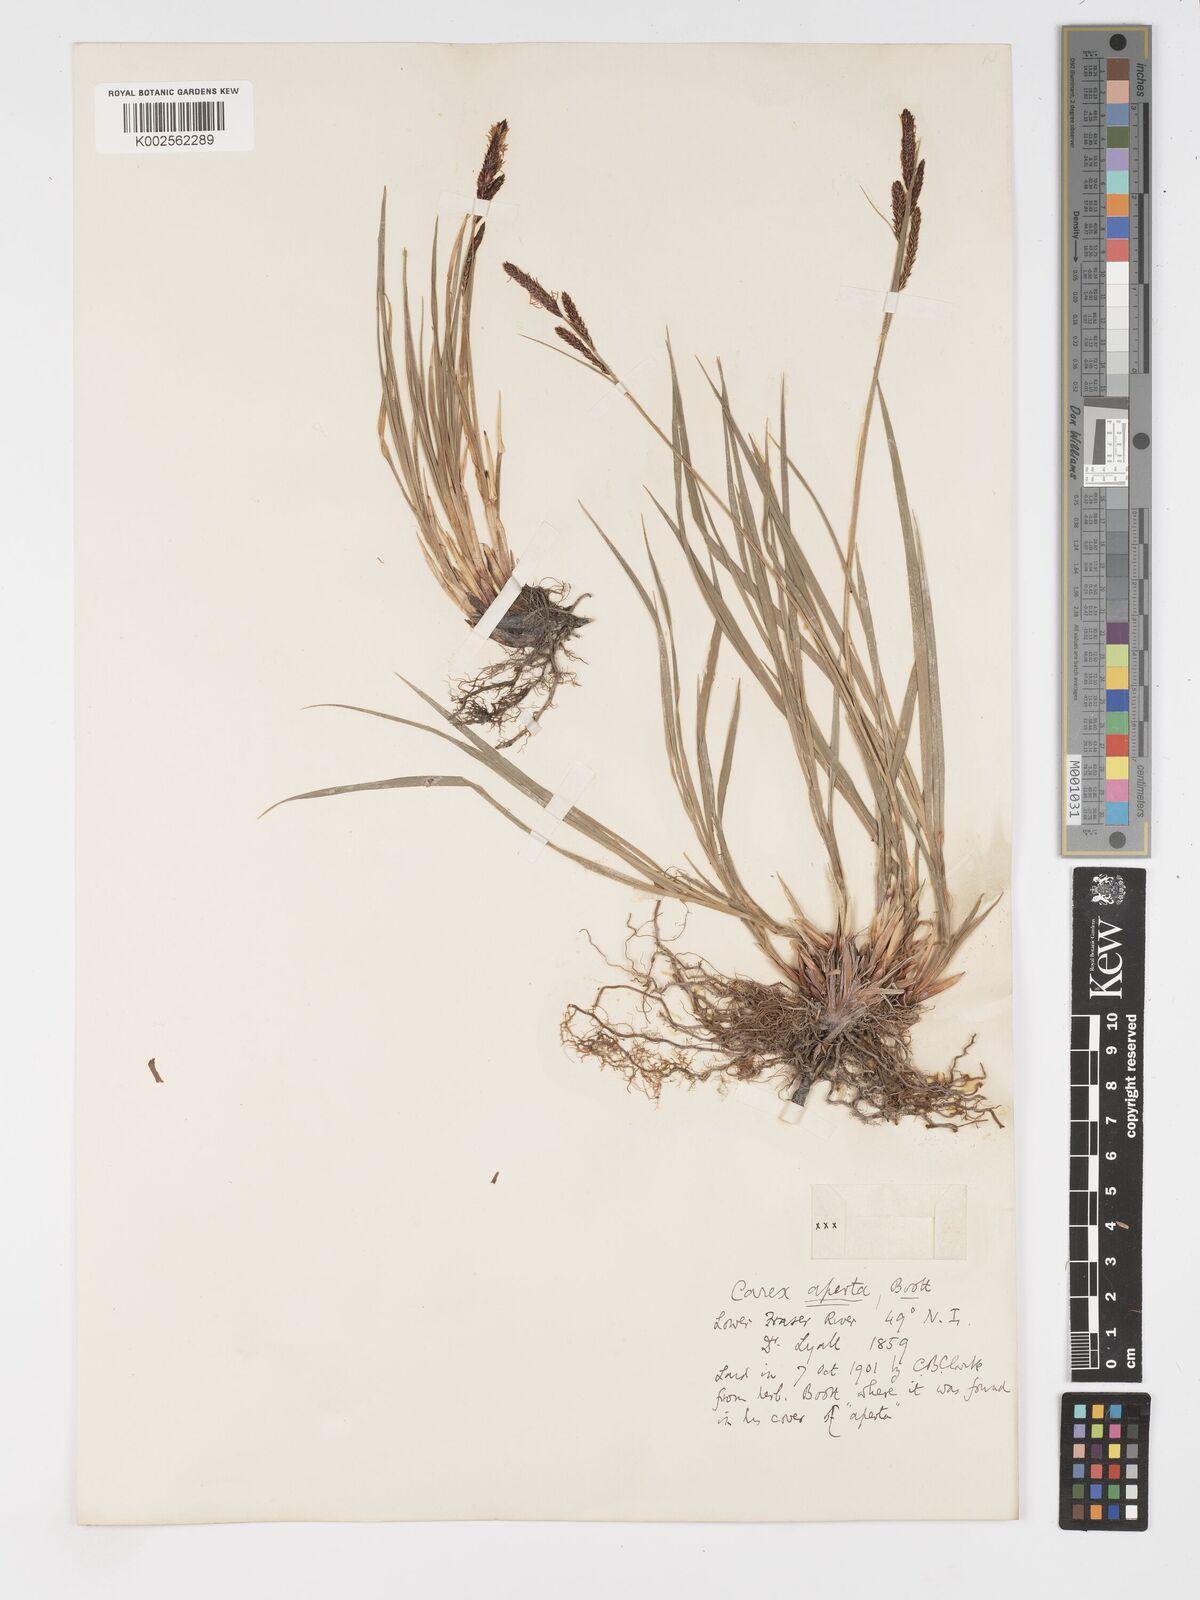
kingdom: Plantae
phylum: Tracheophyta
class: Liliopsida
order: Poales
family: Cyperaceae
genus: Carex
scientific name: Carex aperta
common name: Columbia sedge
